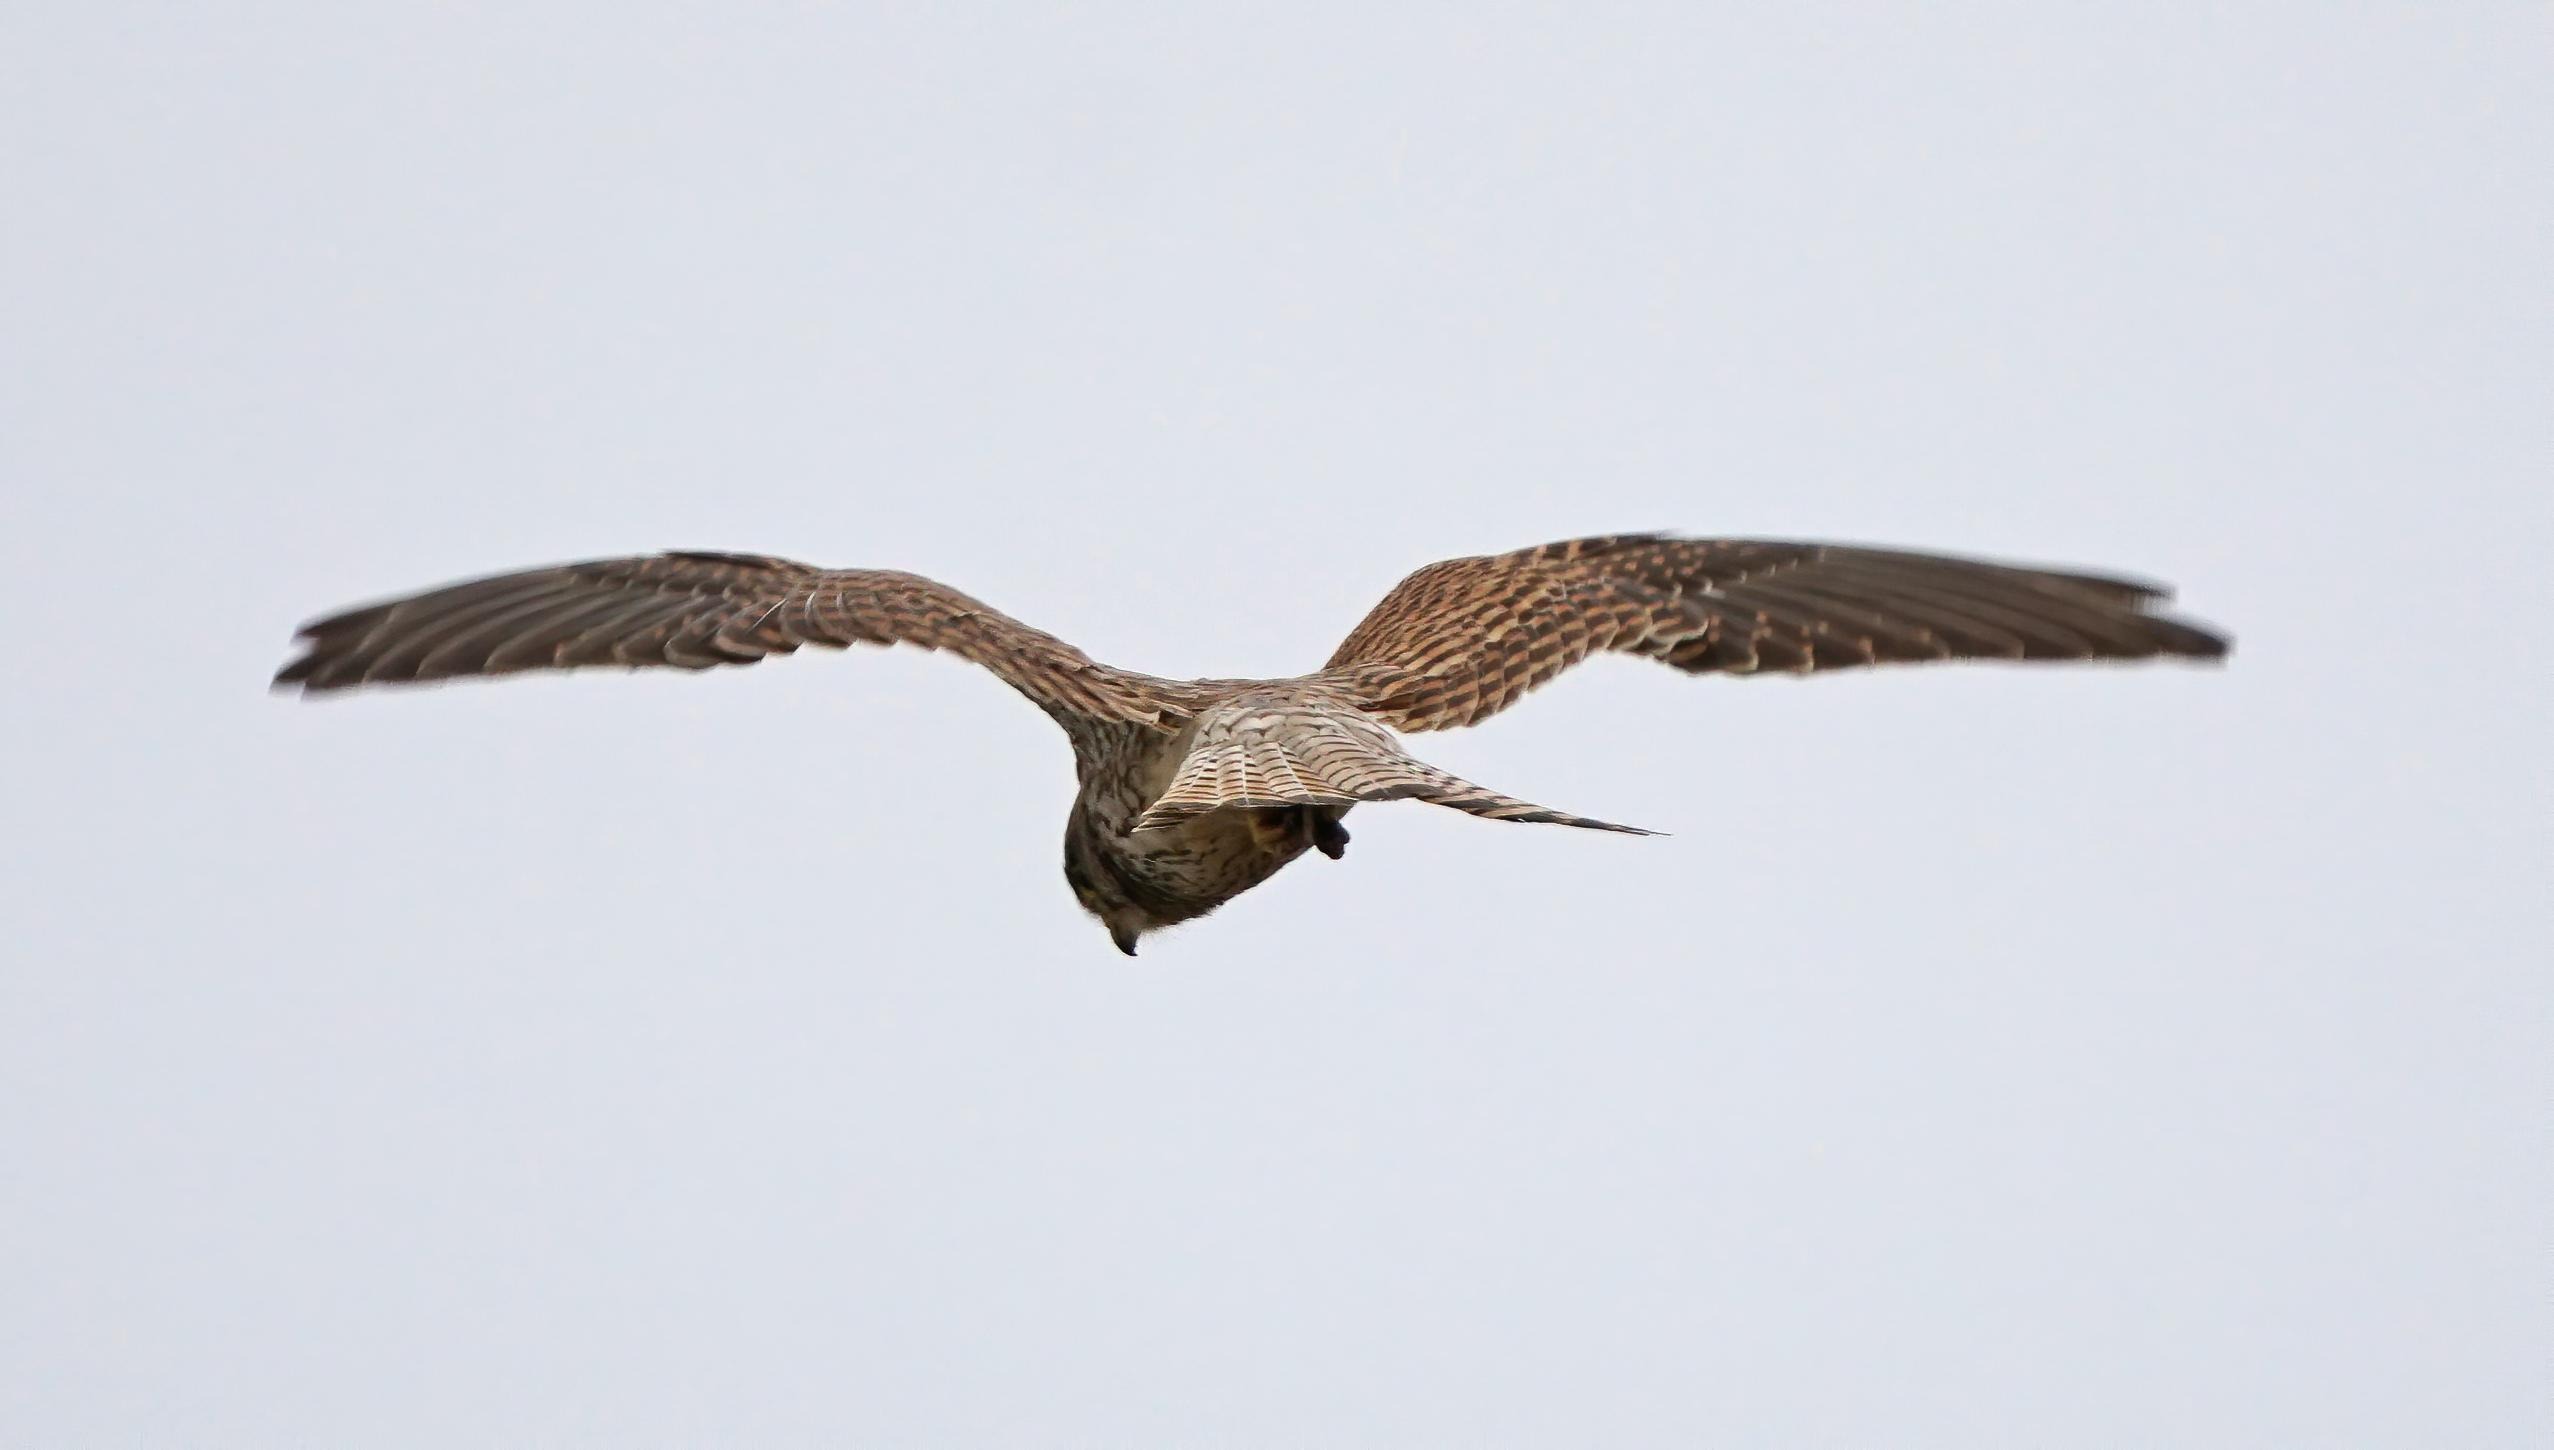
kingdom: Animalia
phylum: Chordata
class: Aves
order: Falconiformes
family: Falconidae
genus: Falco
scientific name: Falco tinnunculus
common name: Tårnfalk
